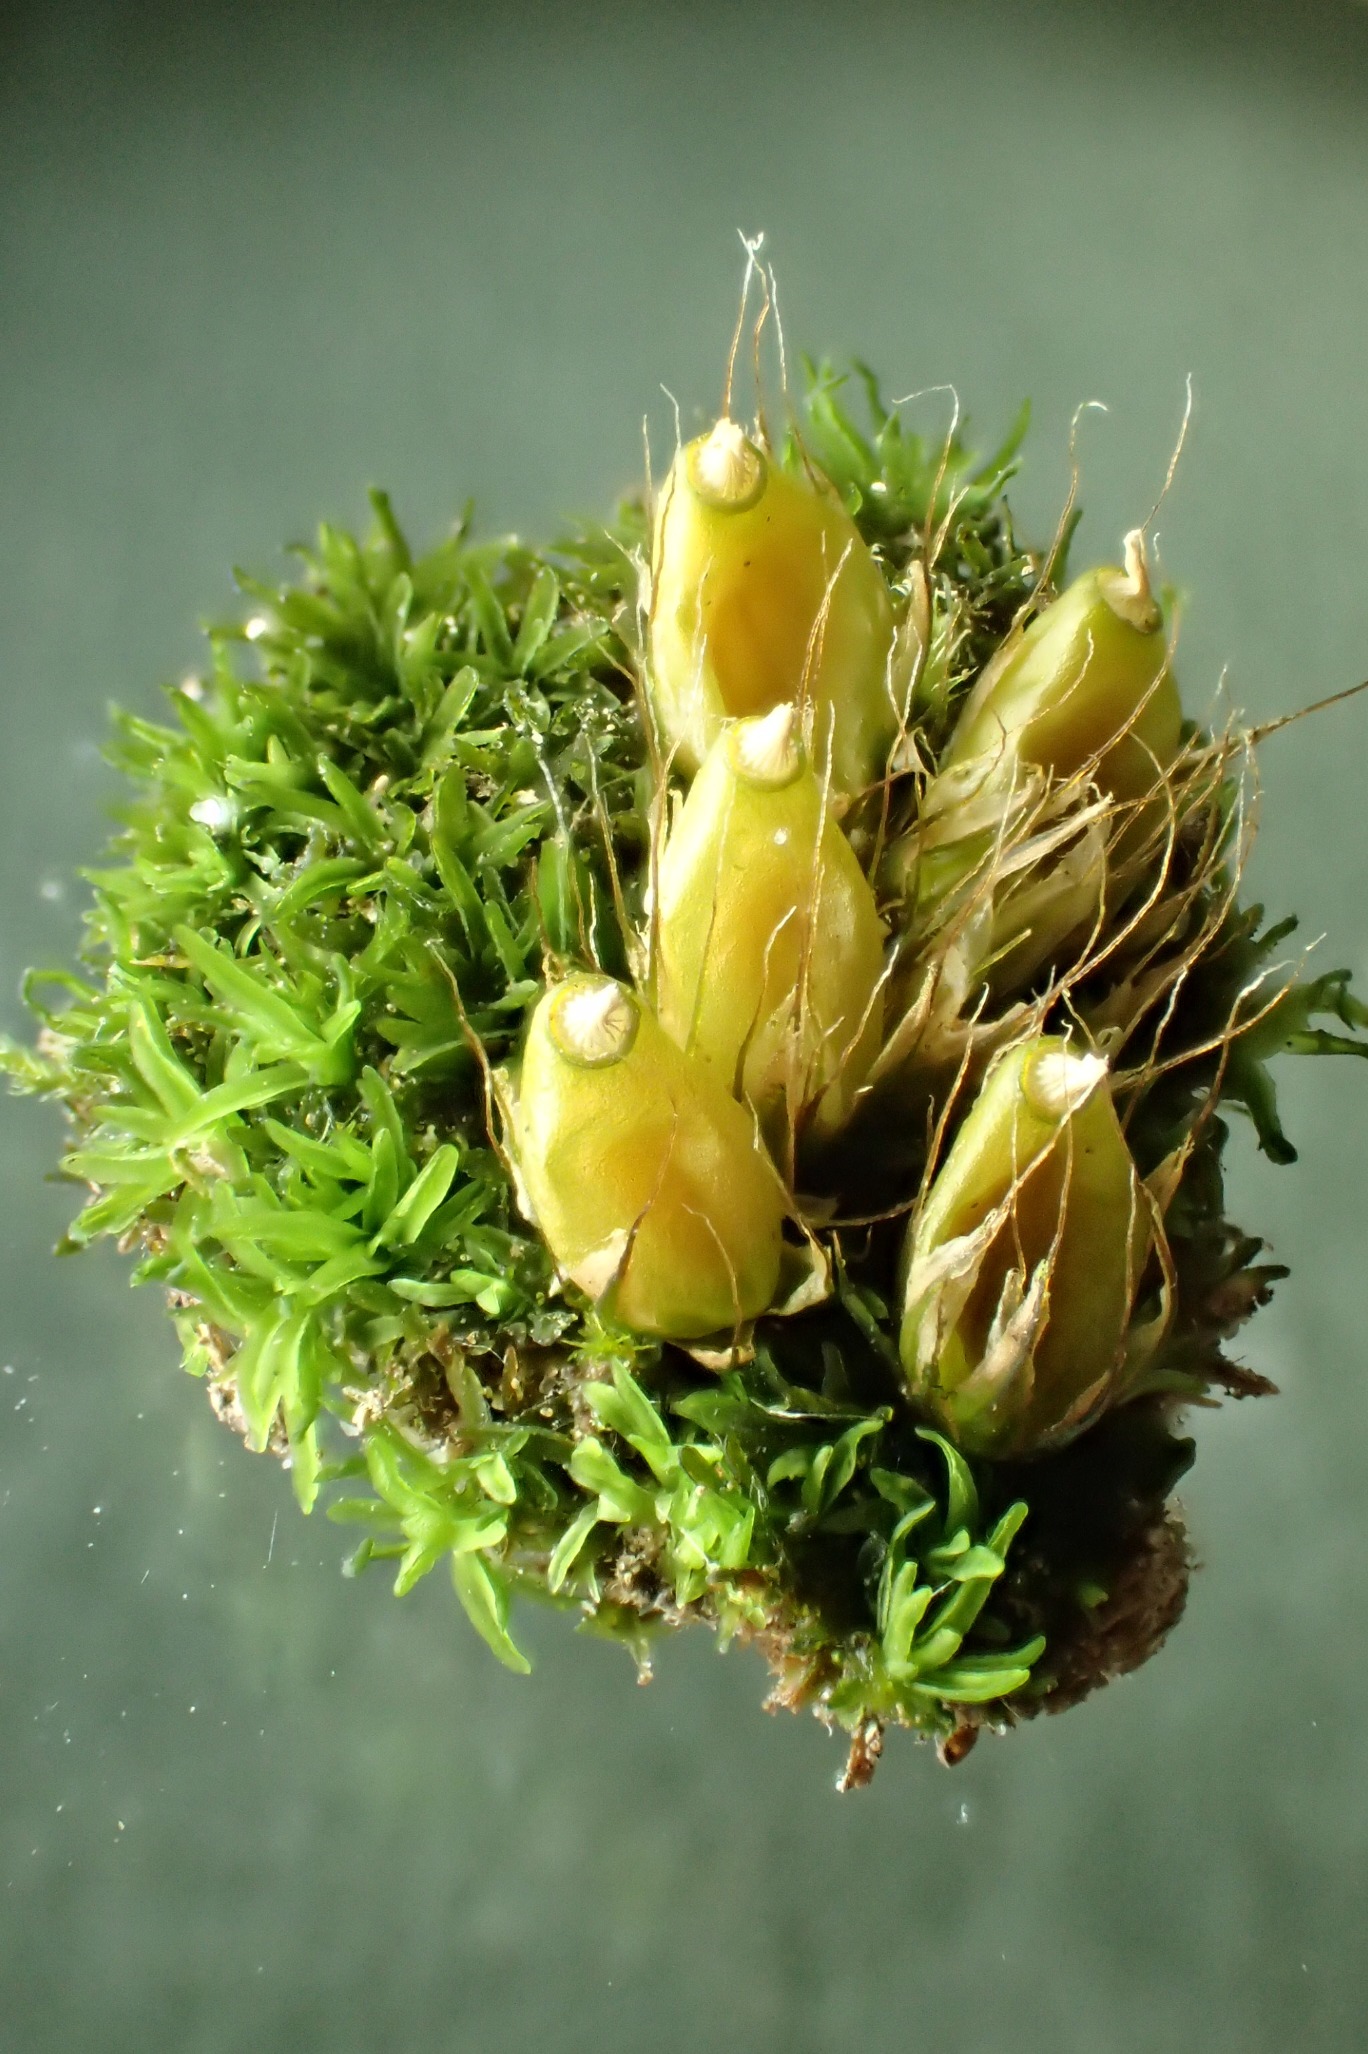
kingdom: Plantae
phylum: Bryophyta
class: Bryopsida
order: Diphysciales
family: Diphysciaceae
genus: Diphyscium
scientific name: Diphyscium foliosum
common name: Stilkløs sækkapsel
